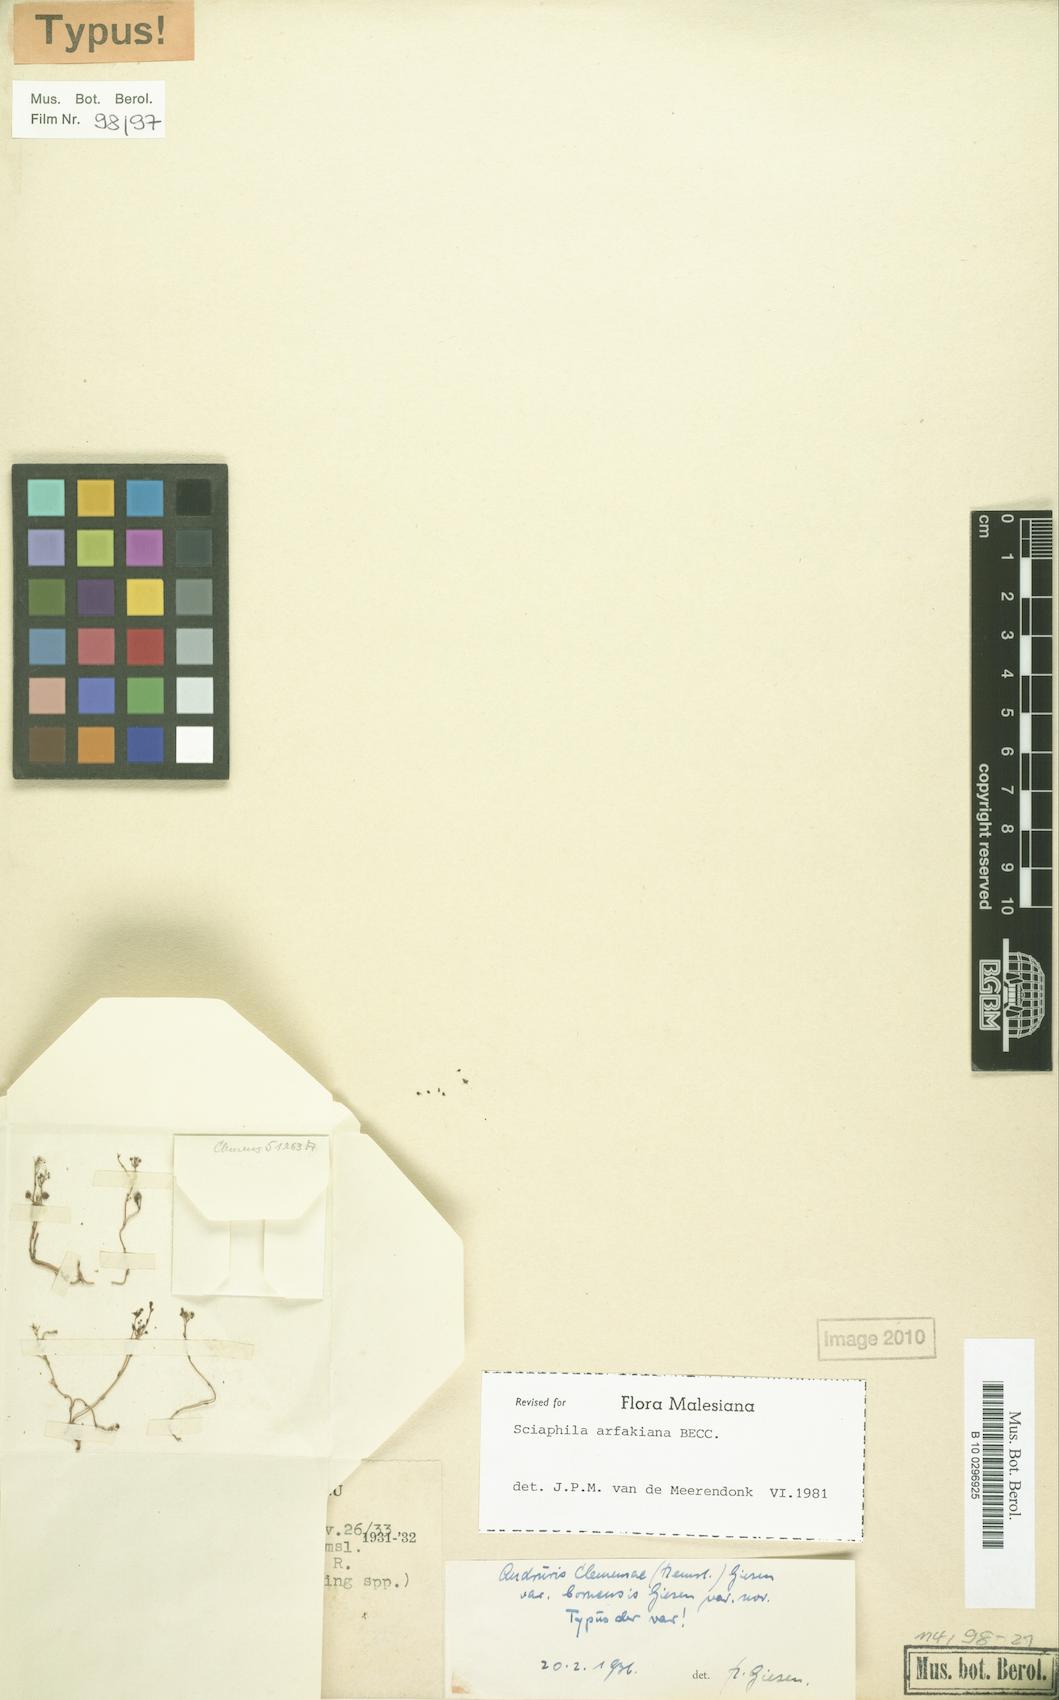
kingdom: Plantae
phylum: Tracheophyta
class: Liliopsida
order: Pandanales
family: Triuridaceae
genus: Sciaphila
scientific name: Sciaphila arfakiana
